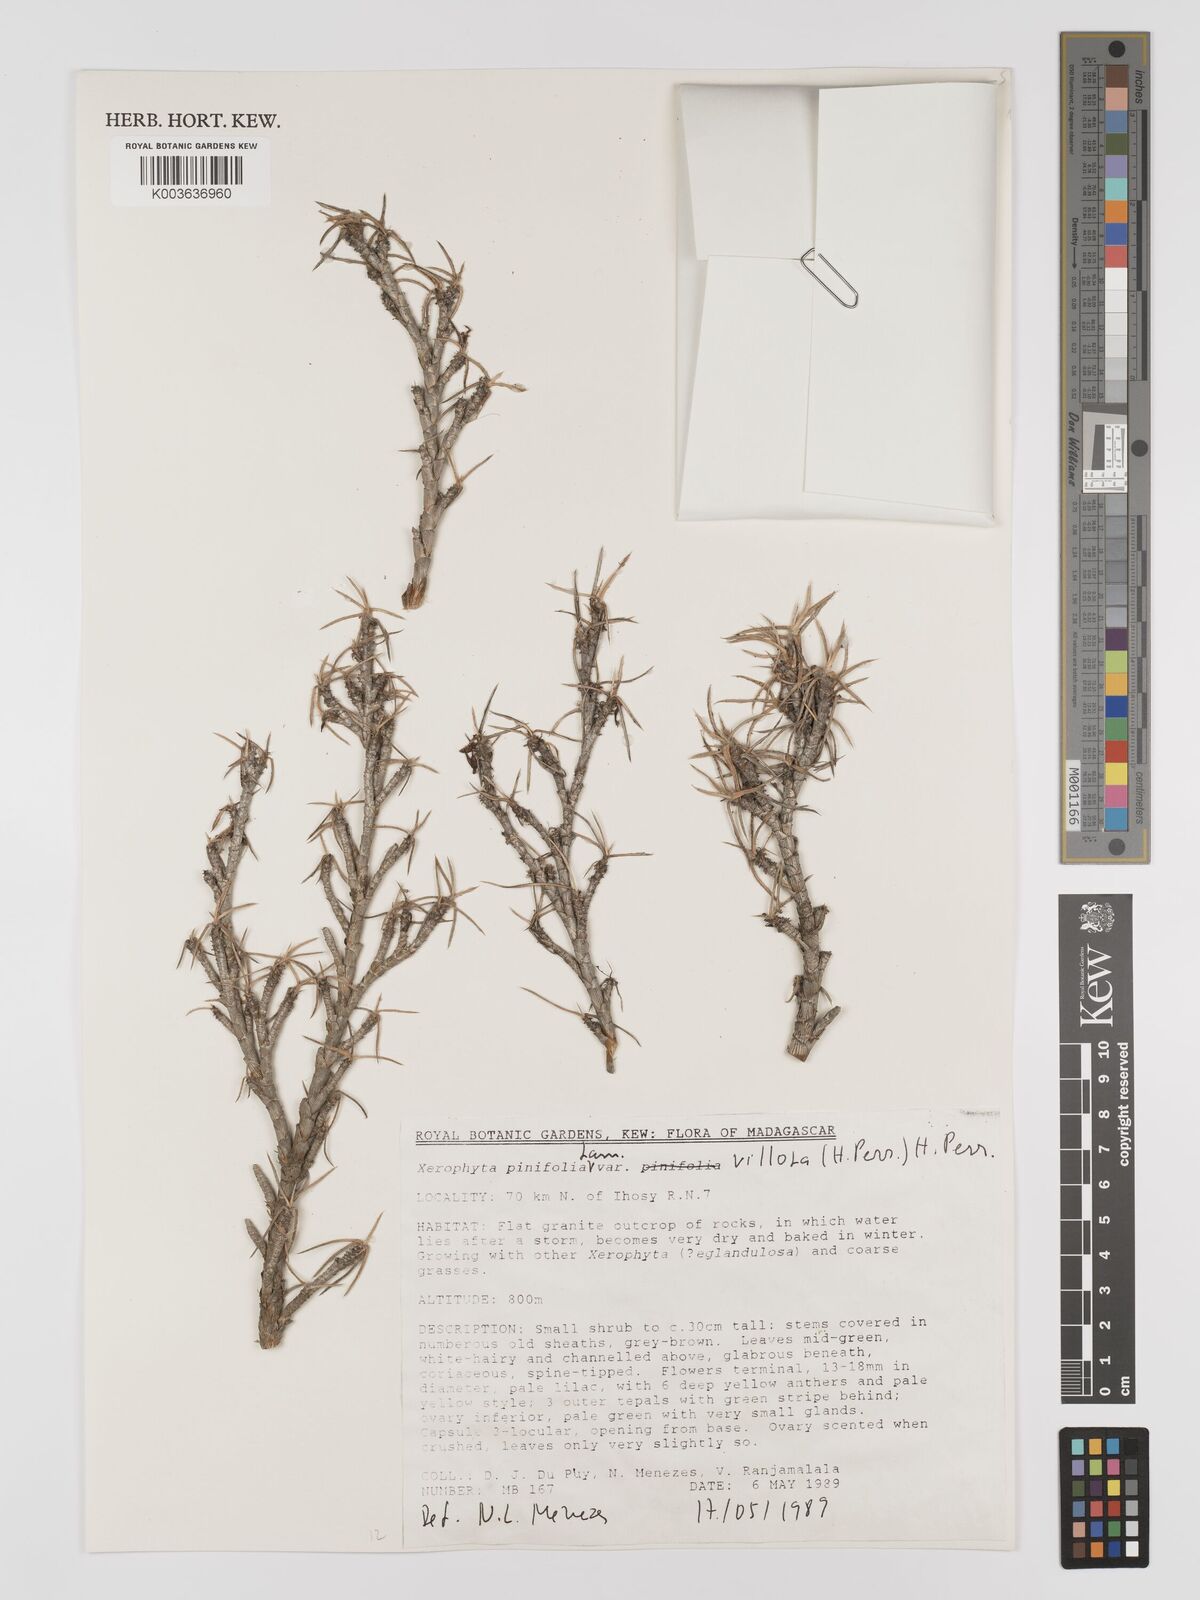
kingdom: Plantae
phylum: Tracheophyta
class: Liliopsida
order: Pandanales
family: Velloziaceae
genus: Xerophyta
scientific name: Xerophyta
